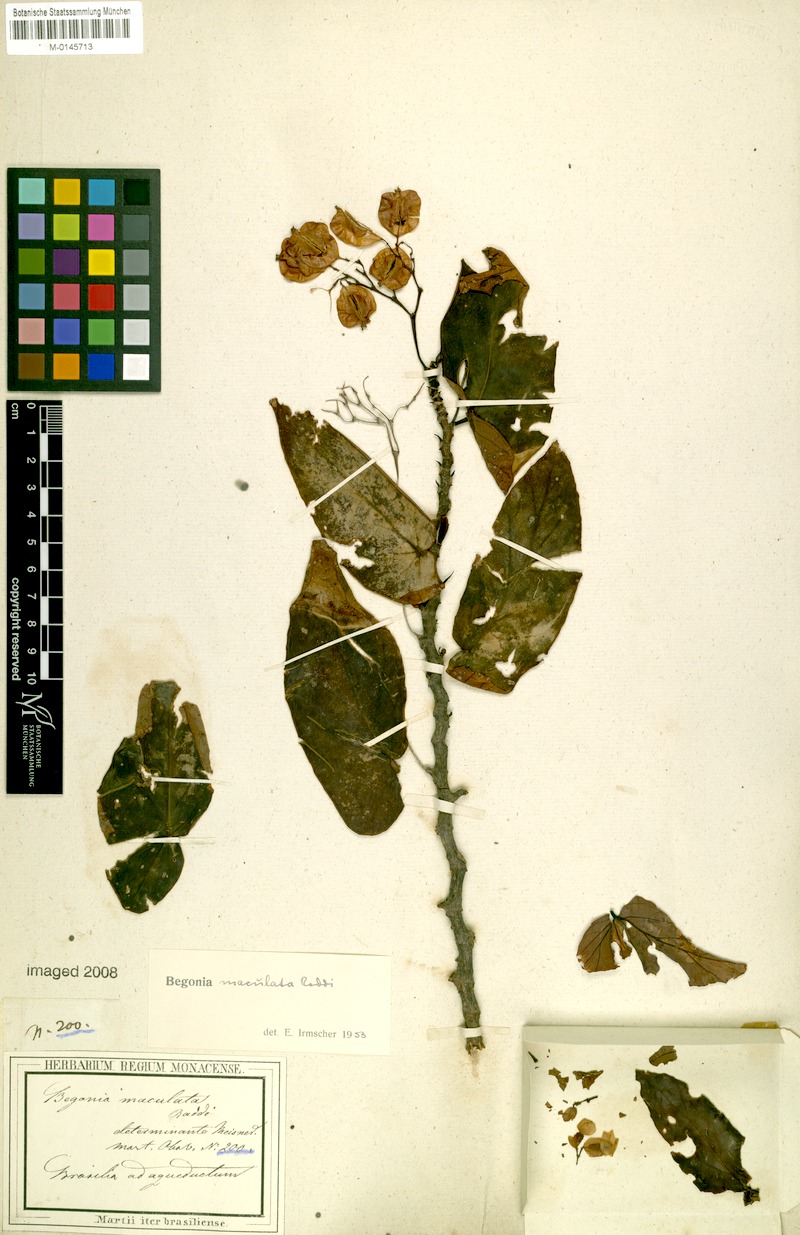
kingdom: Plantae
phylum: Tracheophyta
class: Magnoliopsida
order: Cucurbitales
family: Begoniaceae
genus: Begonia
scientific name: Begonia maculata
